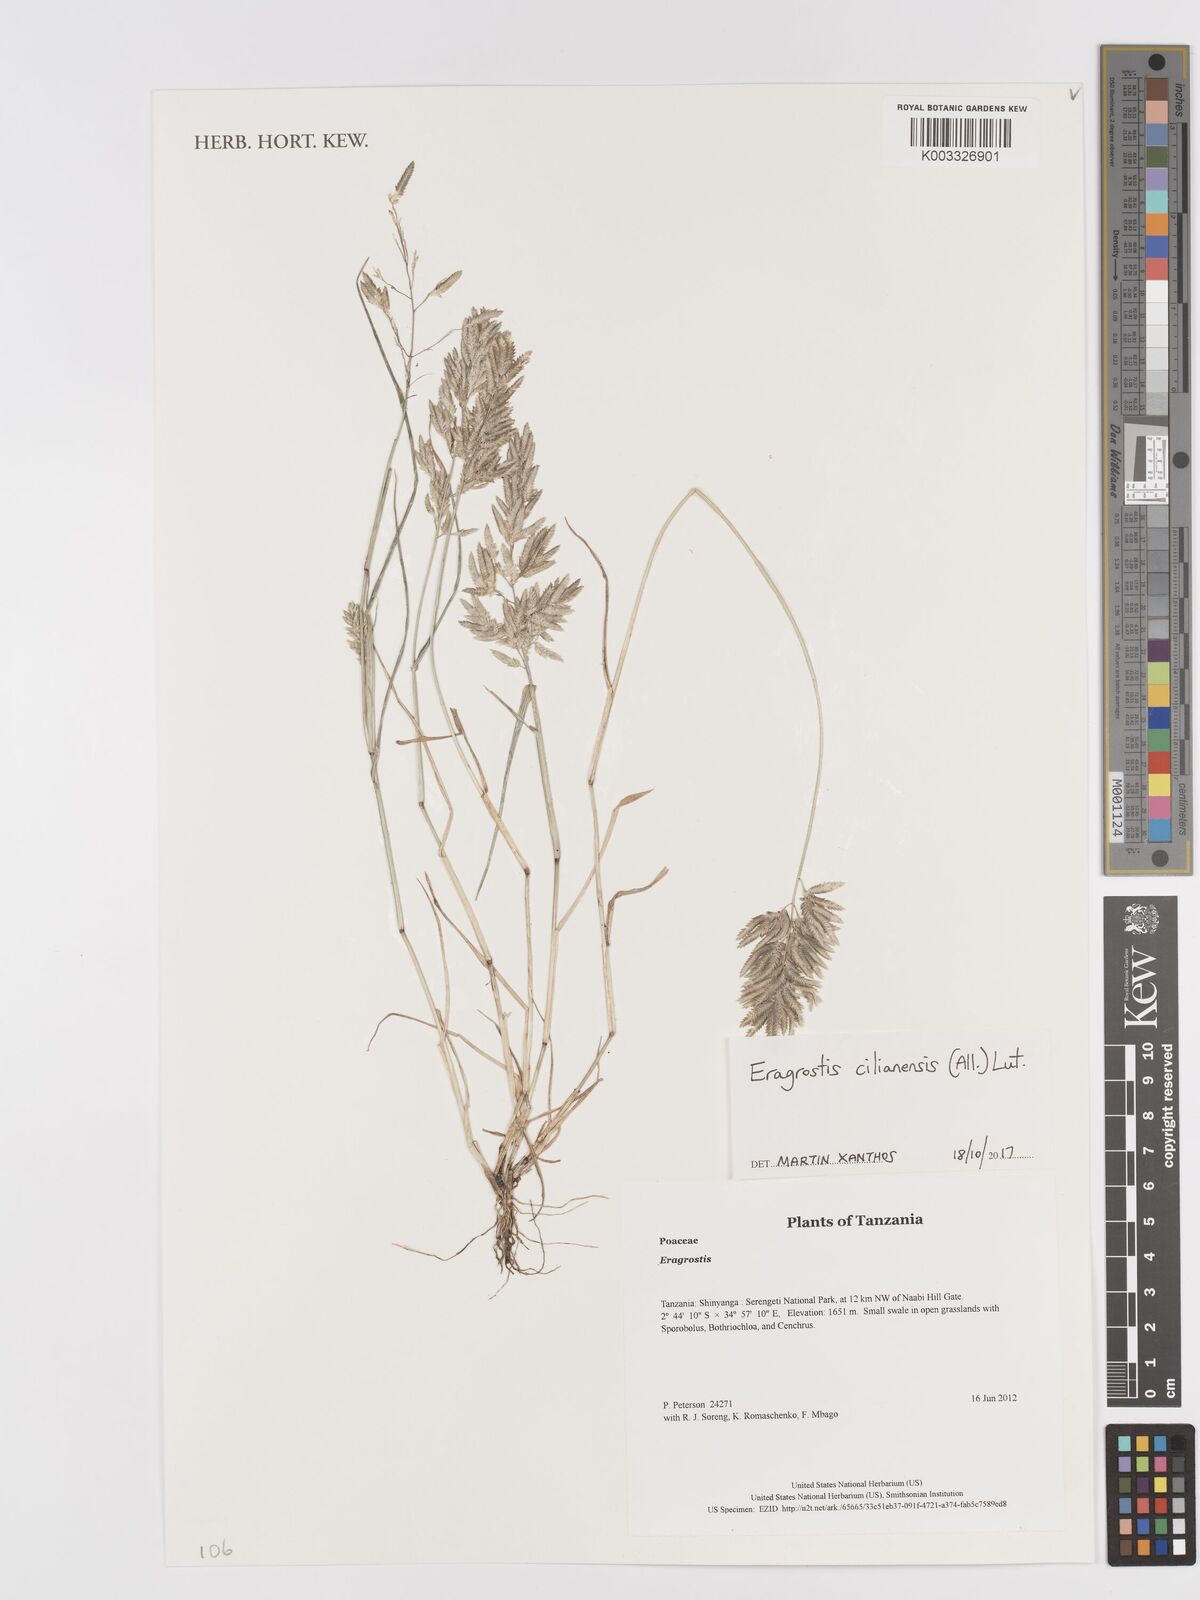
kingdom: Plantae
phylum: Tracheophyta
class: Liliopsida
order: Poales
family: Poaceae
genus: Eragrostis
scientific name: Eragrostis cilianensis
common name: Stinkgrass
